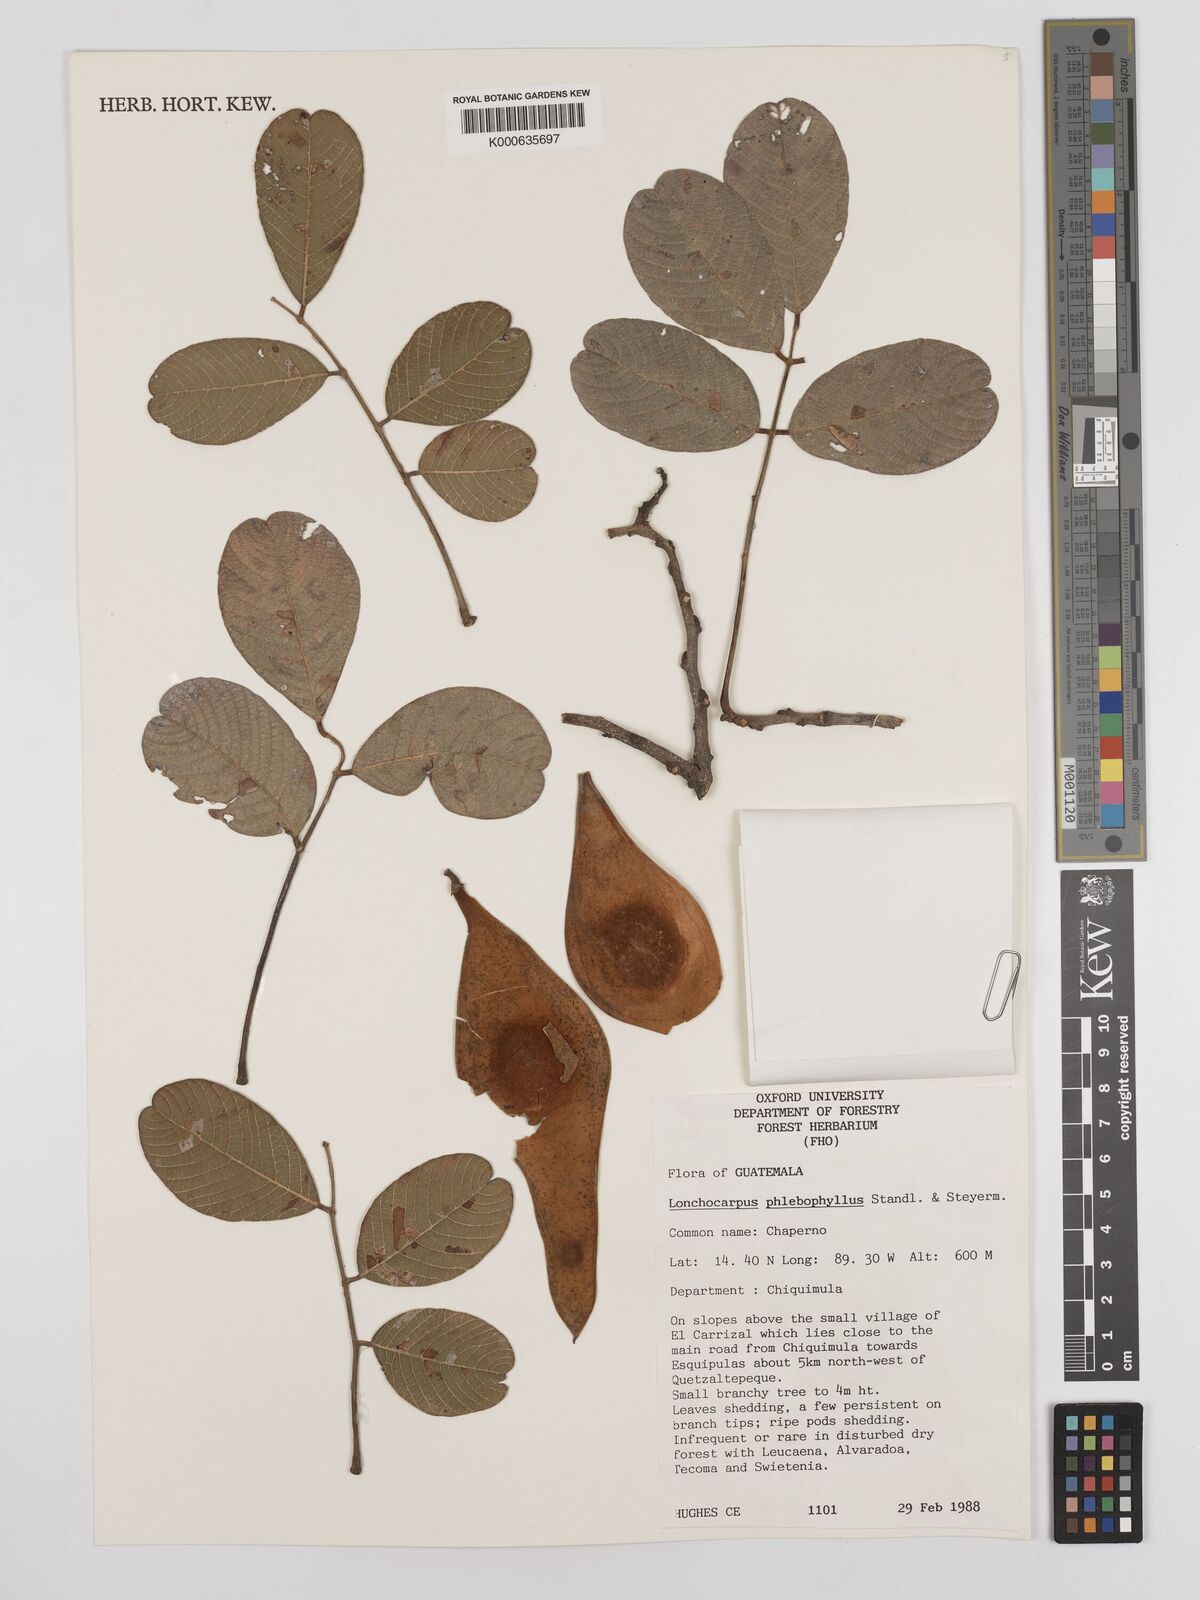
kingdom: Plantae
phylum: Tracheophyta
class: Magnoliopsida
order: Fabales
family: Fabaceae
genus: Lonchocarpus
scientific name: Lonchocarpus phlebophyllus
